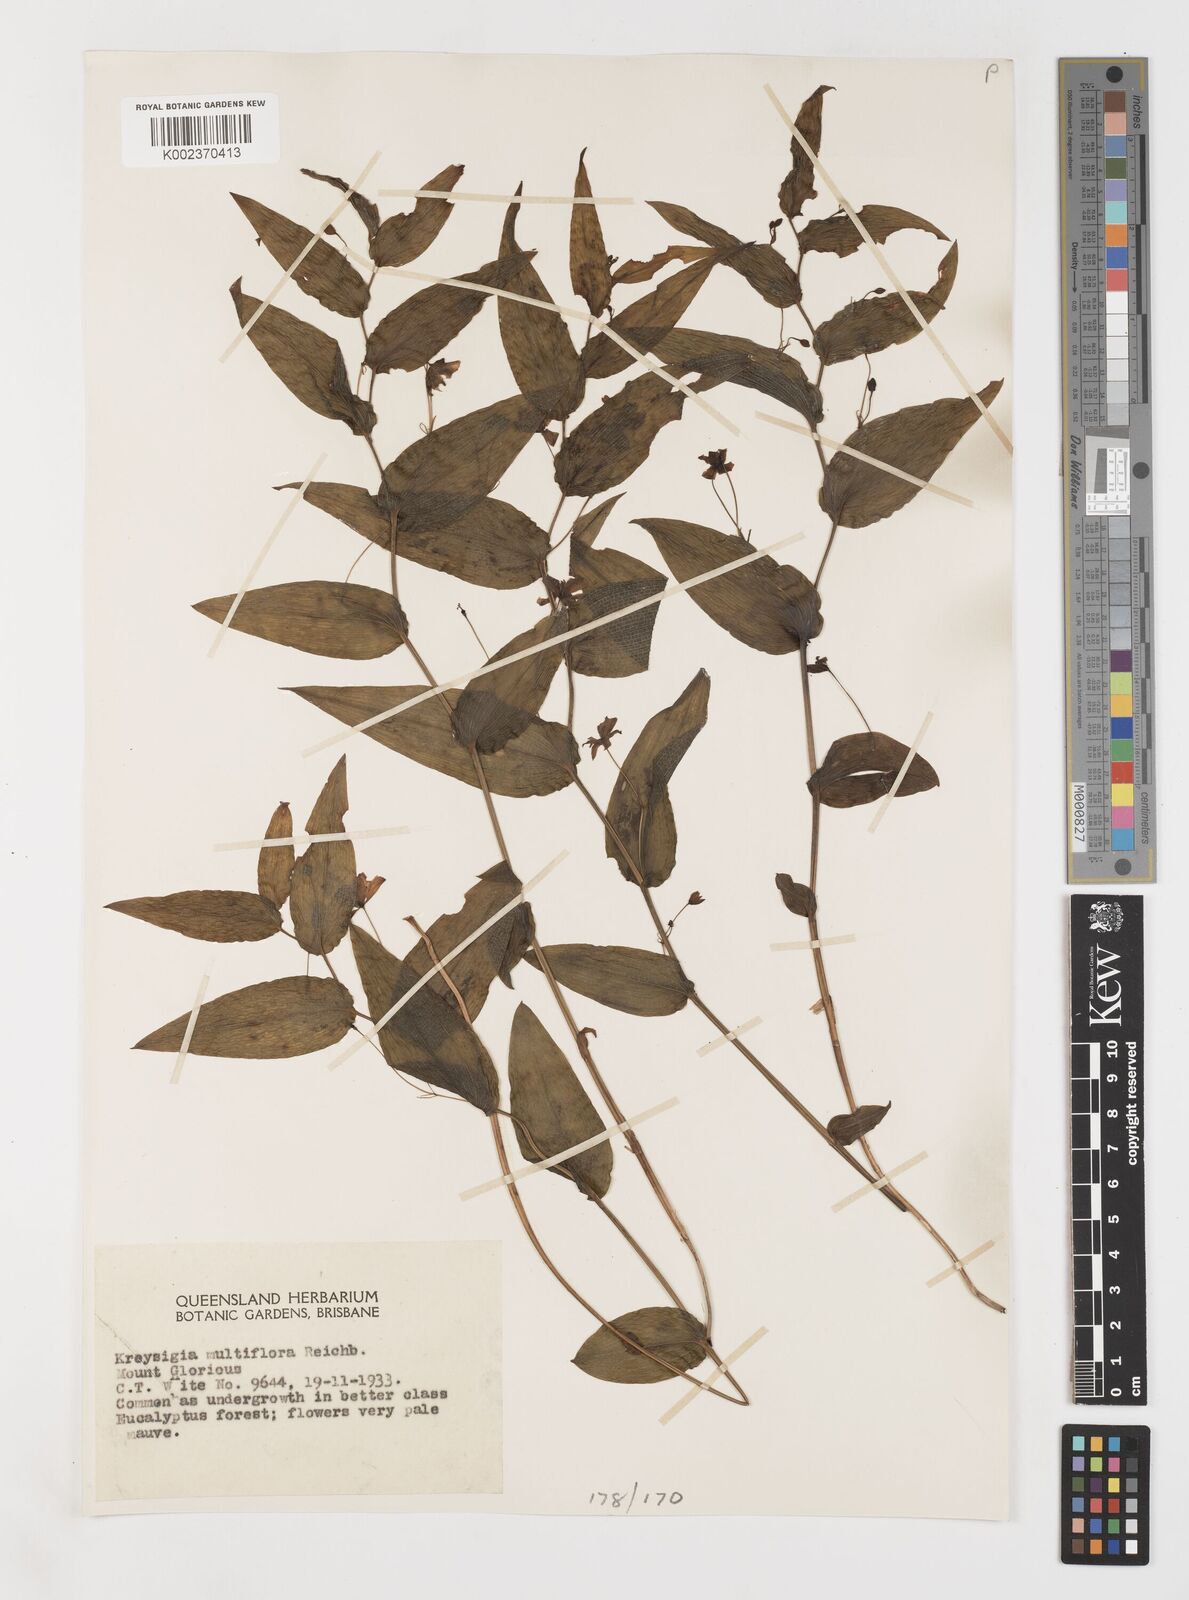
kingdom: Plantae
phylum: Tracheophyta
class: Liliopsida
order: Liliales
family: Colchicaceae
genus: Tripladenia
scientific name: Tripladenia
